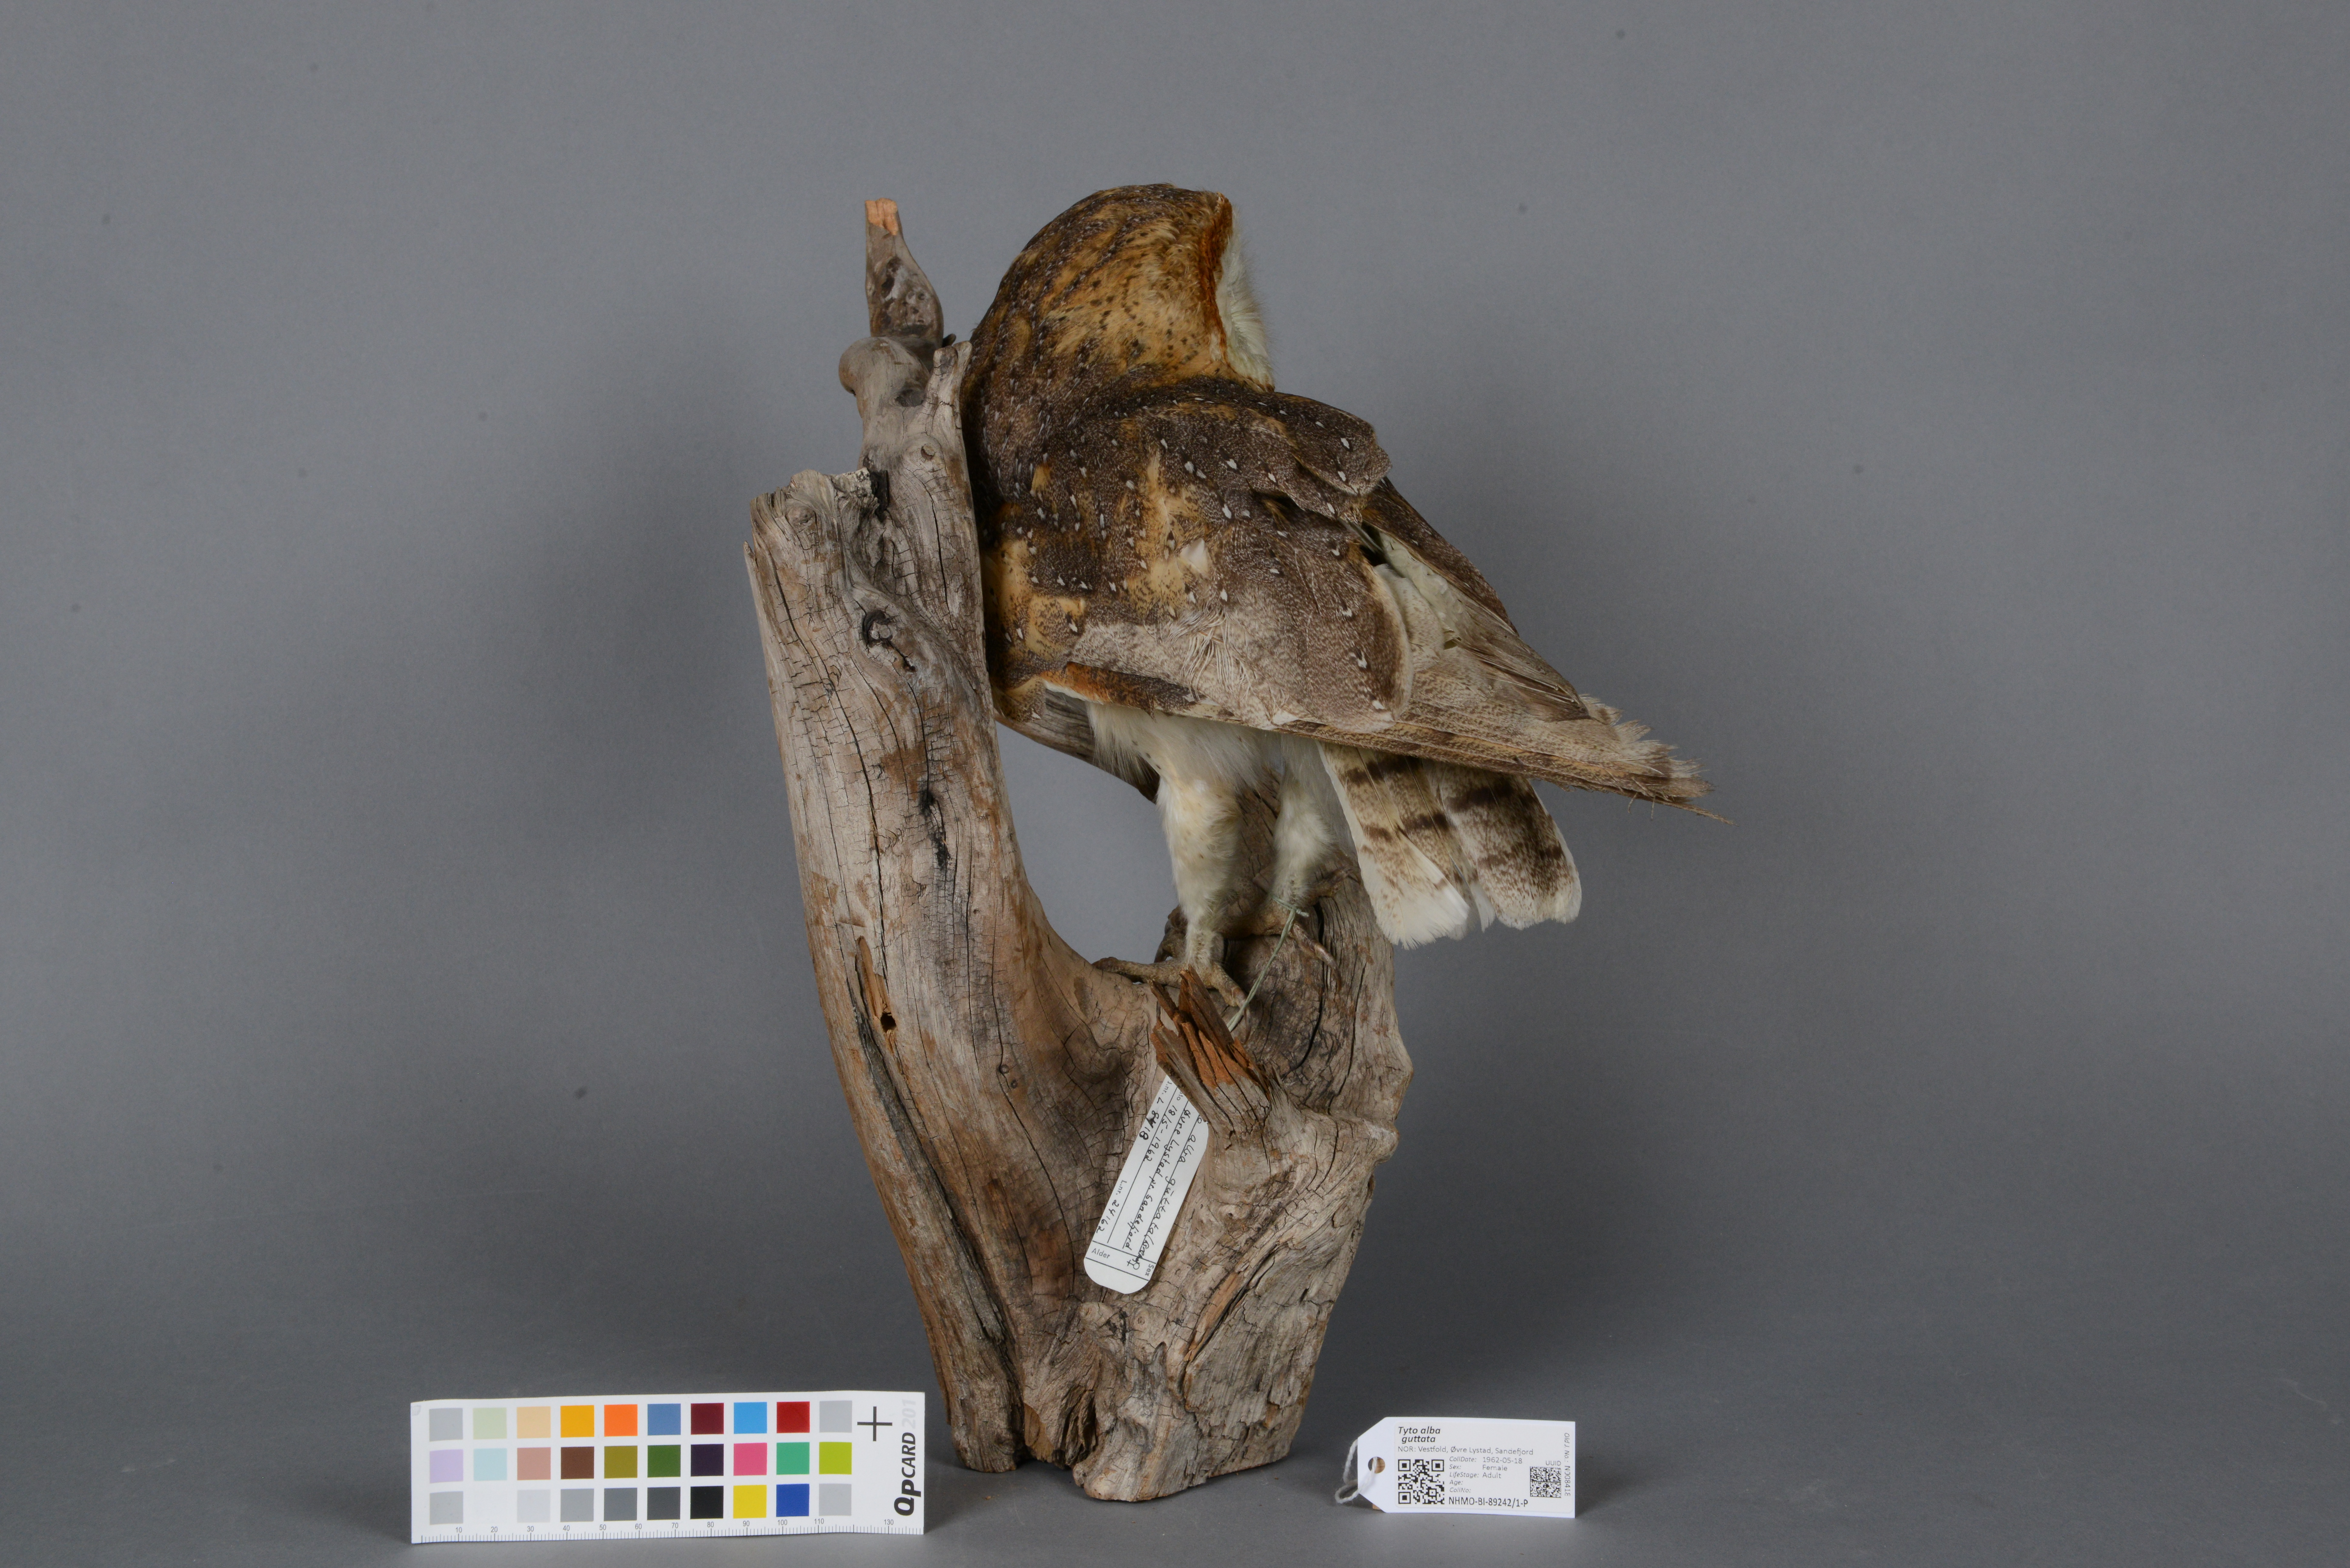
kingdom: Animalia
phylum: Chordata
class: Aves
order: Strigiformes
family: Tytonidae
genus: Tyto
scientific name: Tyto alba
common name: Barn owl
